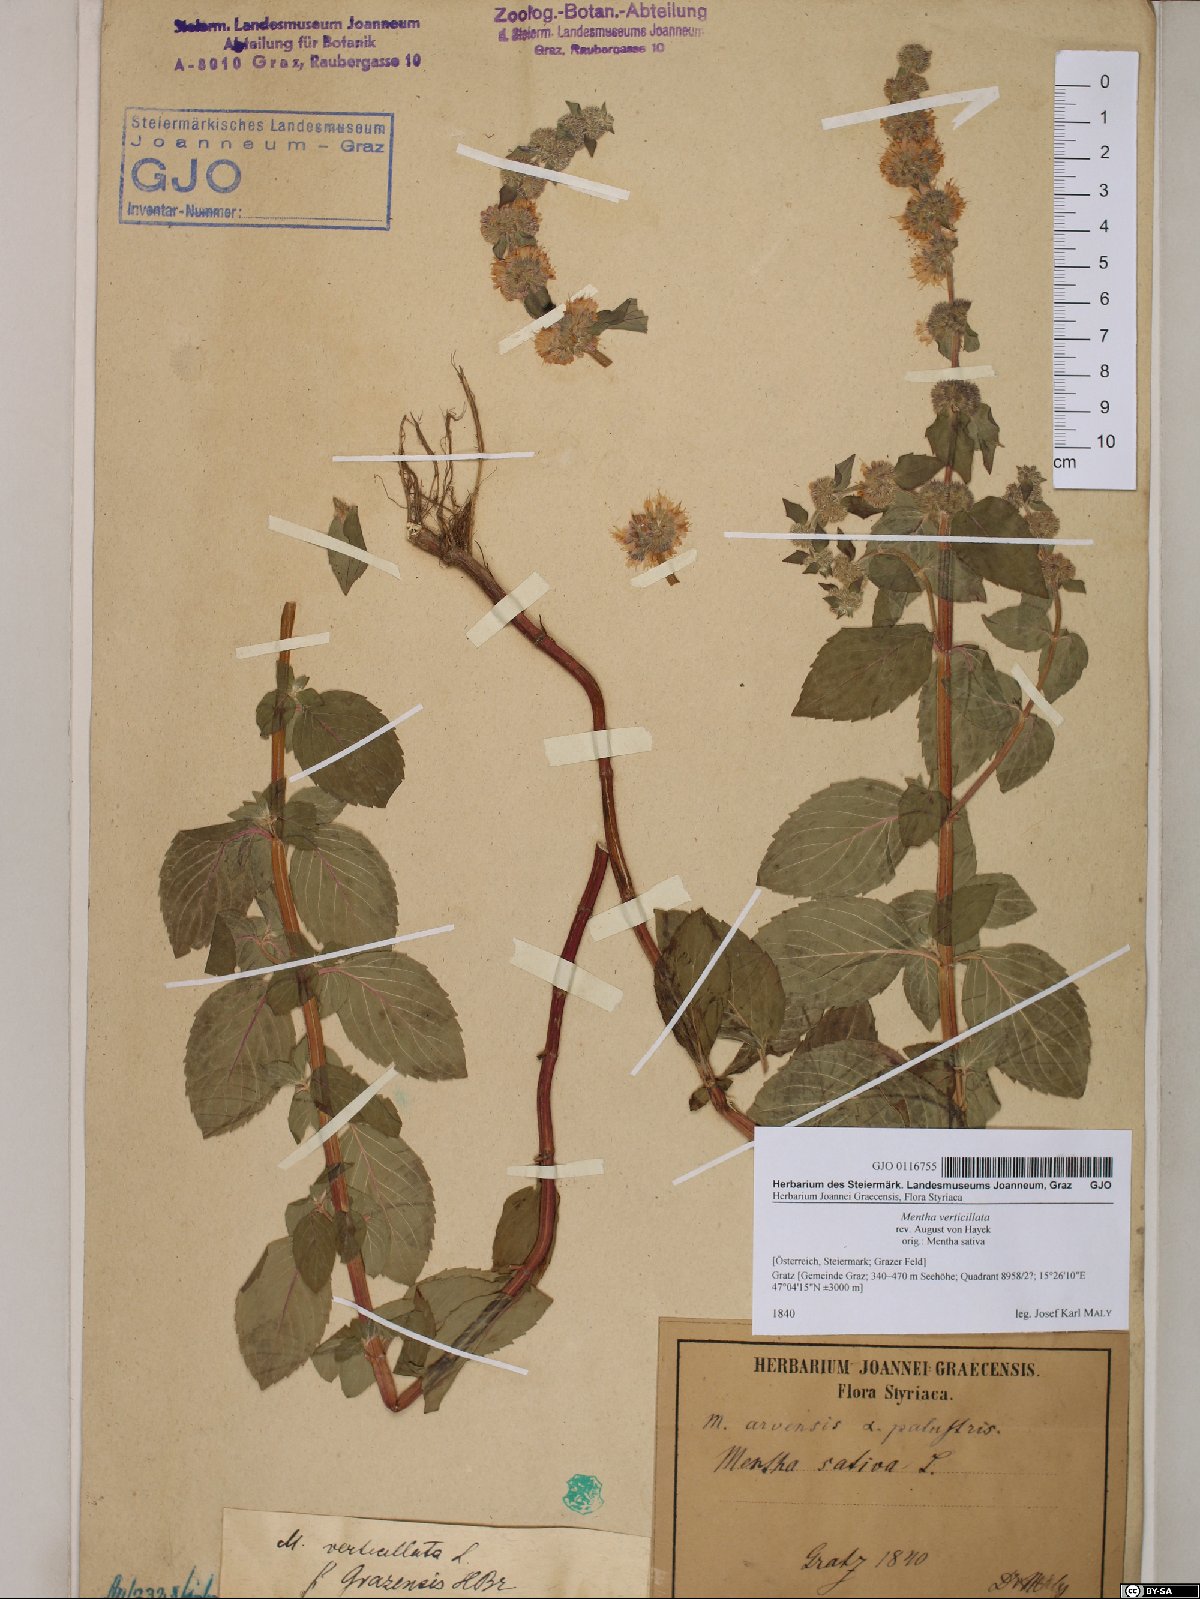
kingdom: Plantae
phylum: Tracheophyta
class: Magnoliopsida
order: Lamiales
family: Lamiaceae
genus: Mentha
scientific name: Mentha verticillata
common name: Mint
